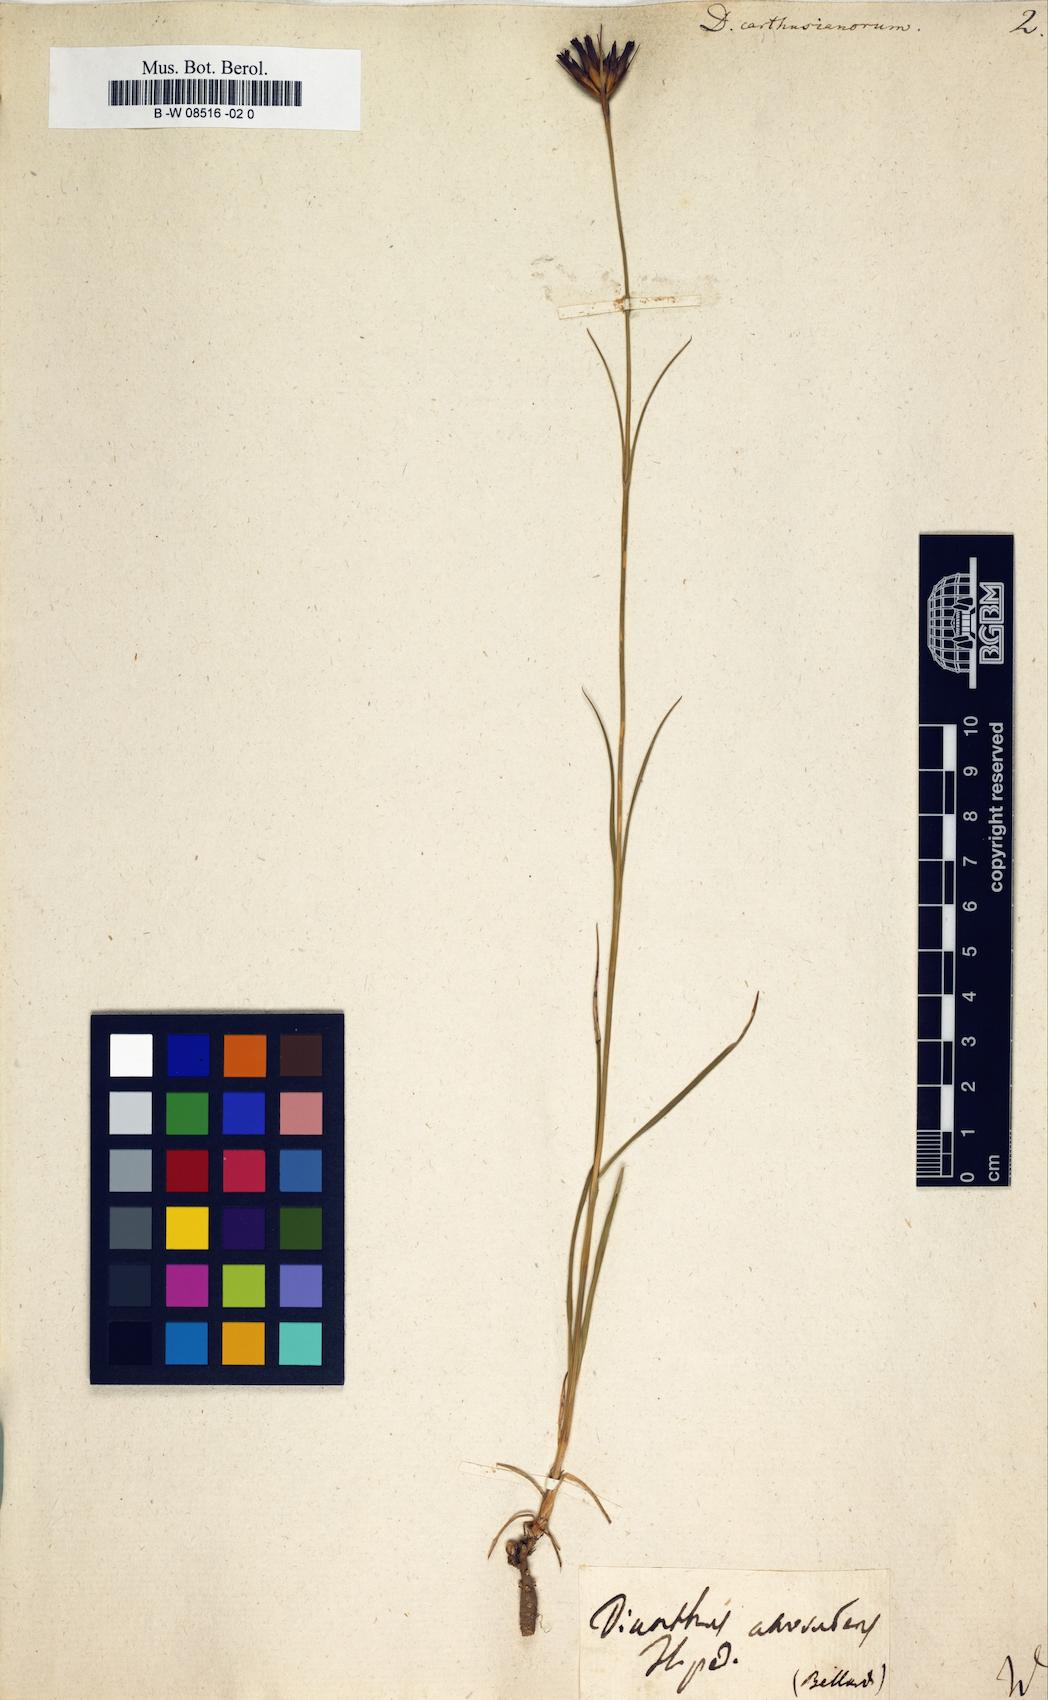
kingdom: Plantae
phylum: Tracheophyta
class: Magnoliopsida
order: Caryophyllales
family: Caryophyllaceae
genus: Dianthus
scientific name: Dianthus carthusianorum
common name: Carthusian pink
